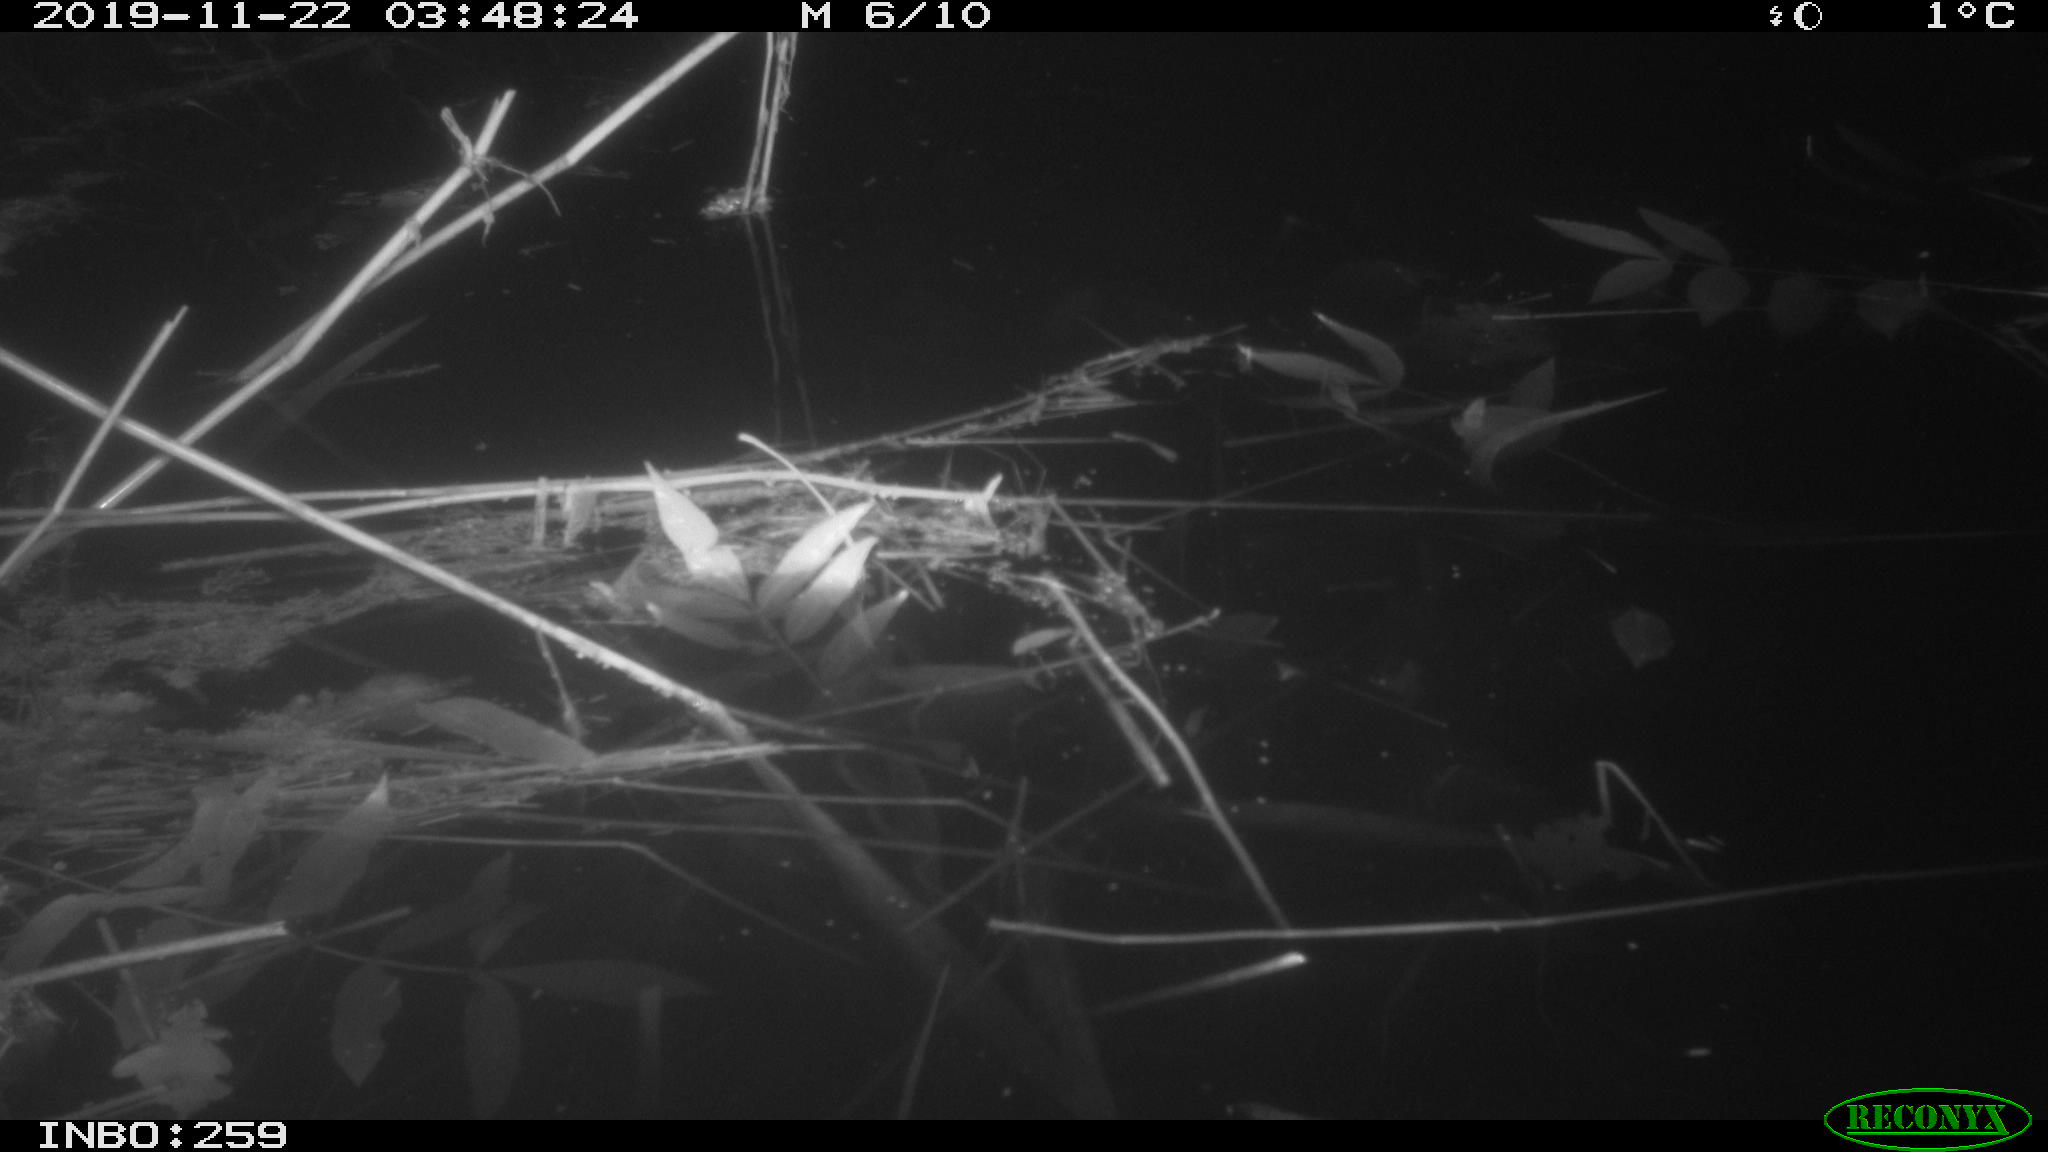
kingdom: Animalia
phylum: Chordata
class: Mammalia
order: Rodentia
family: Cricetidae
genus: Ondatra
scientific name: Ondatra zibethicus
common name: Muskrat
